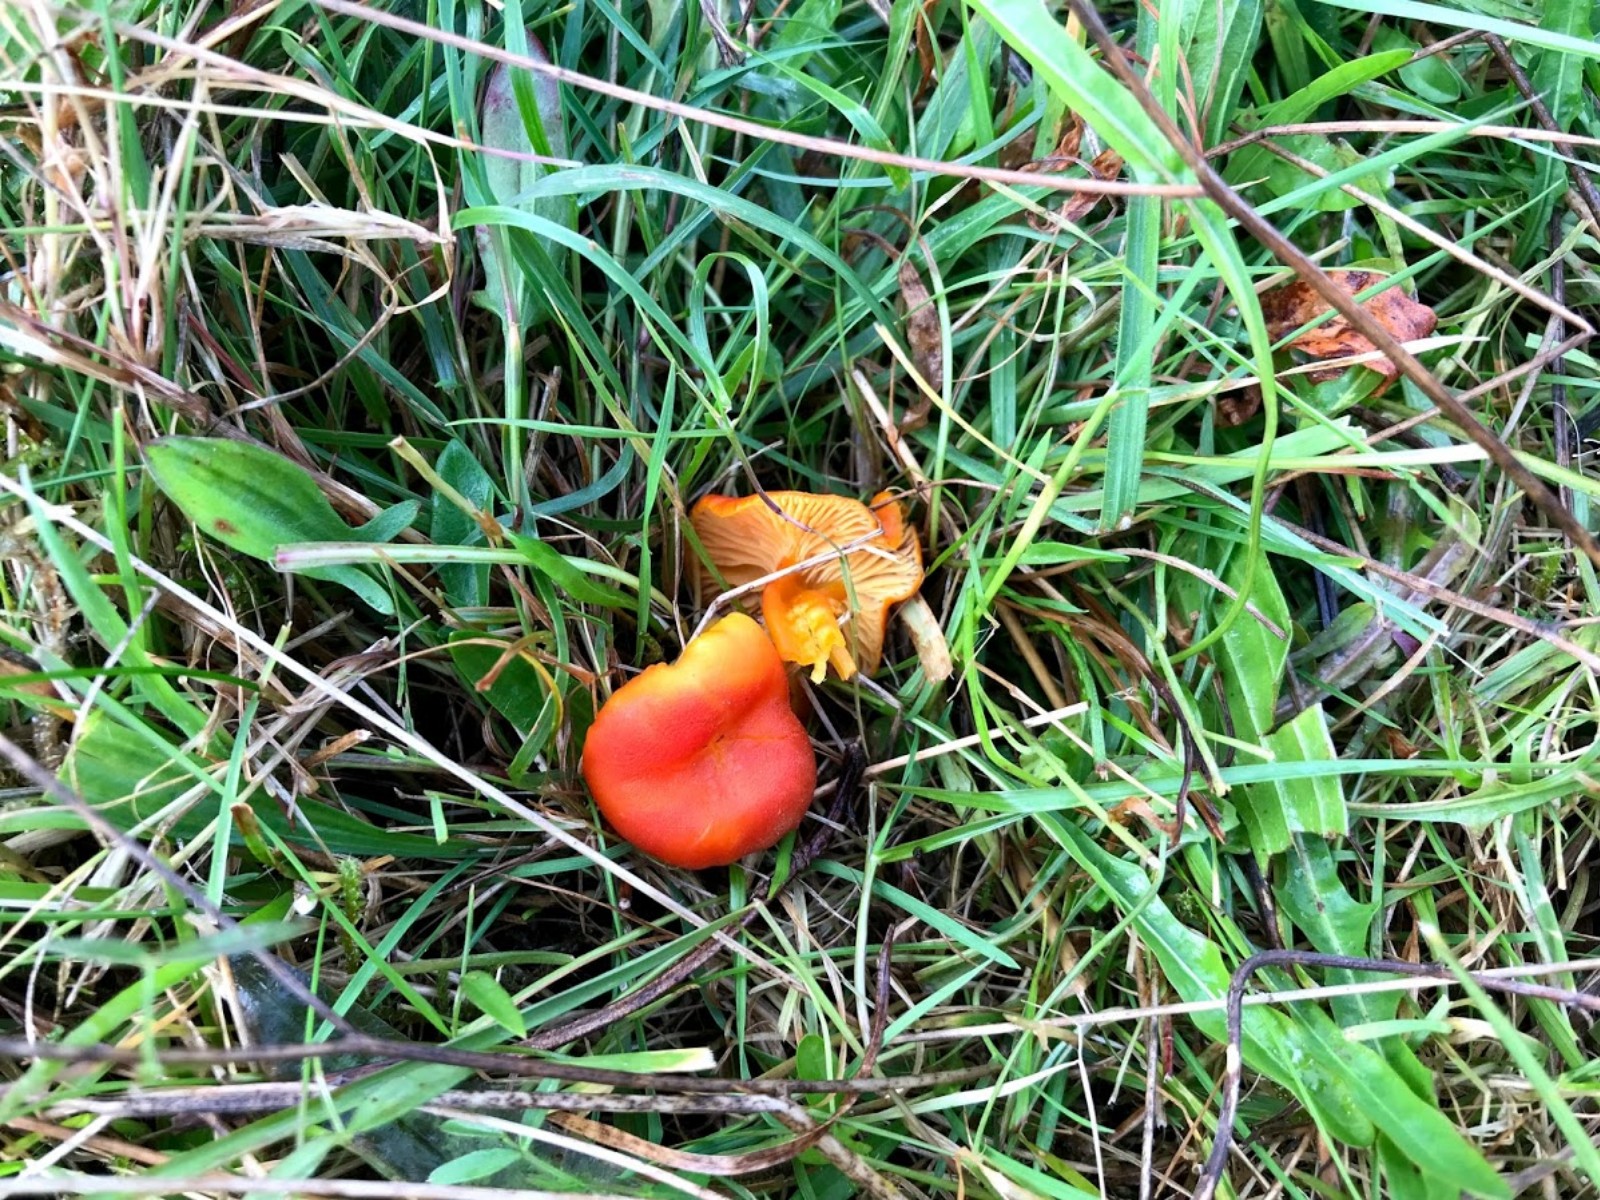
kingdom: Fungi
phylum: Basidiomycota
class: Agaricomycetes
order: Agaricales
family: Hygrophoraceae
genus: Hygrocybe
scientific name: Hygrocybe miniata
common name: mønje-vokshat
